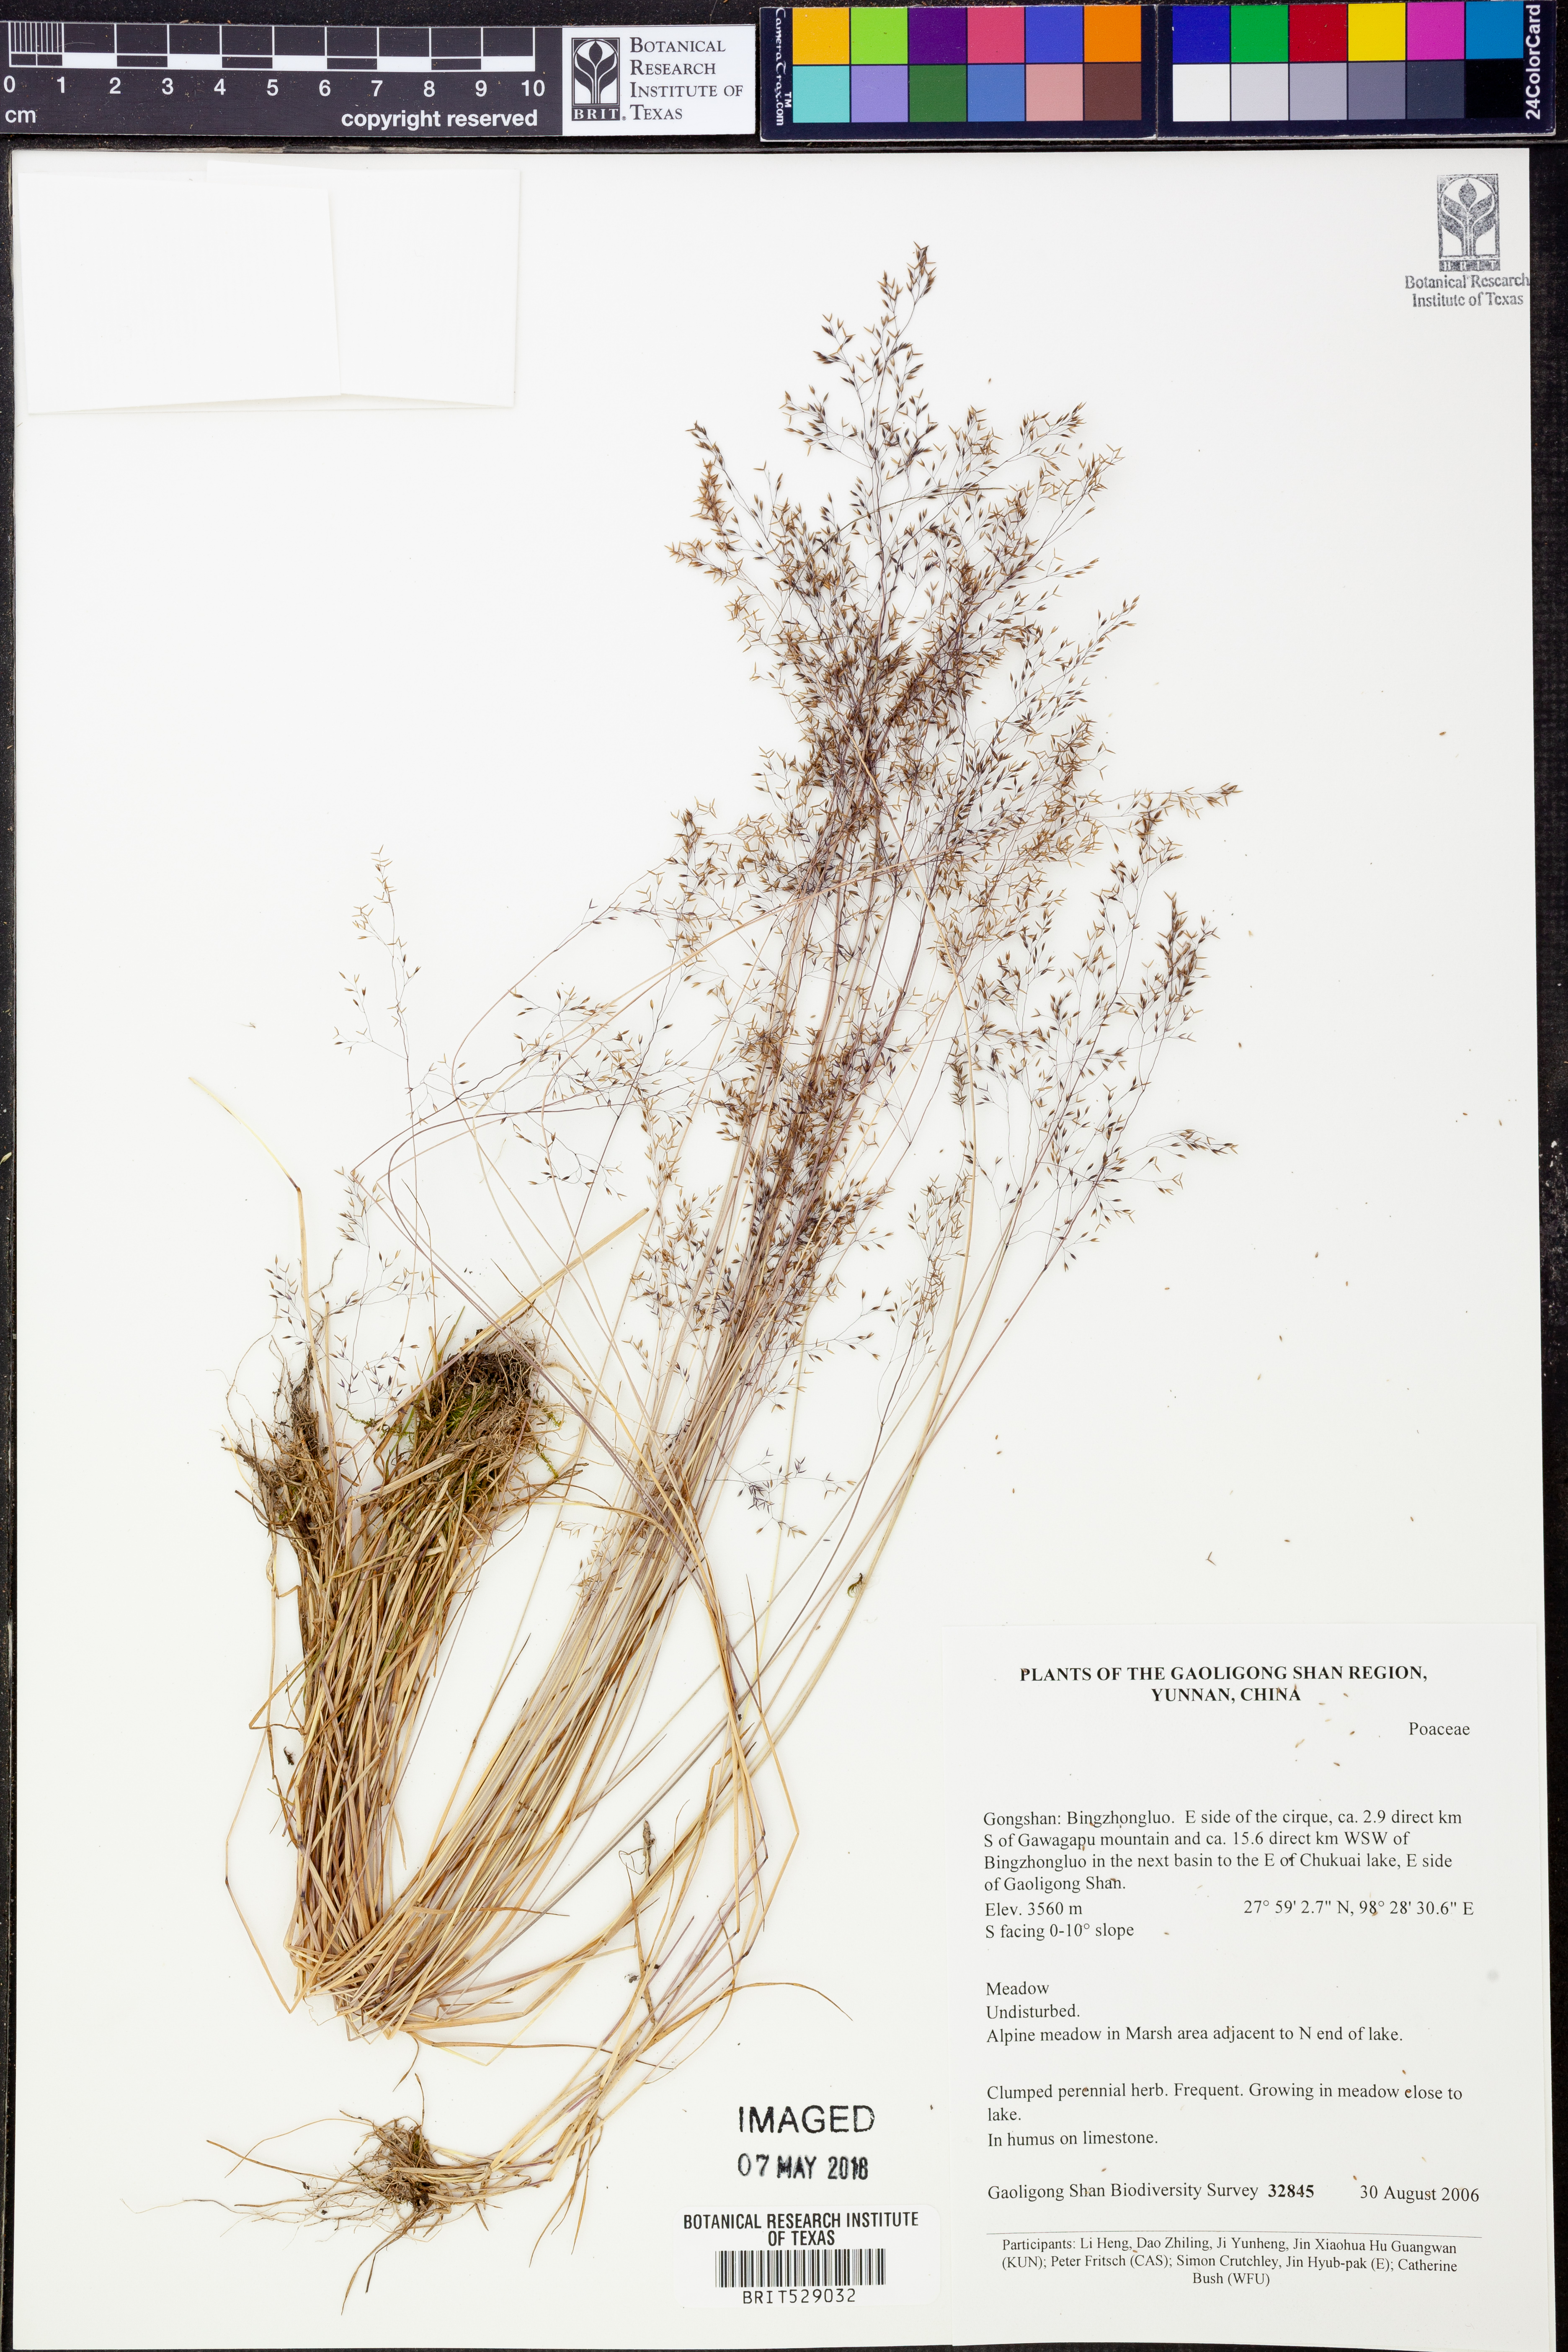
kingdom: Plantae
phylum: Tracheophyta
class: Liliopsida
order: Poales
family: Poaceae
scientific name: Poaceae
